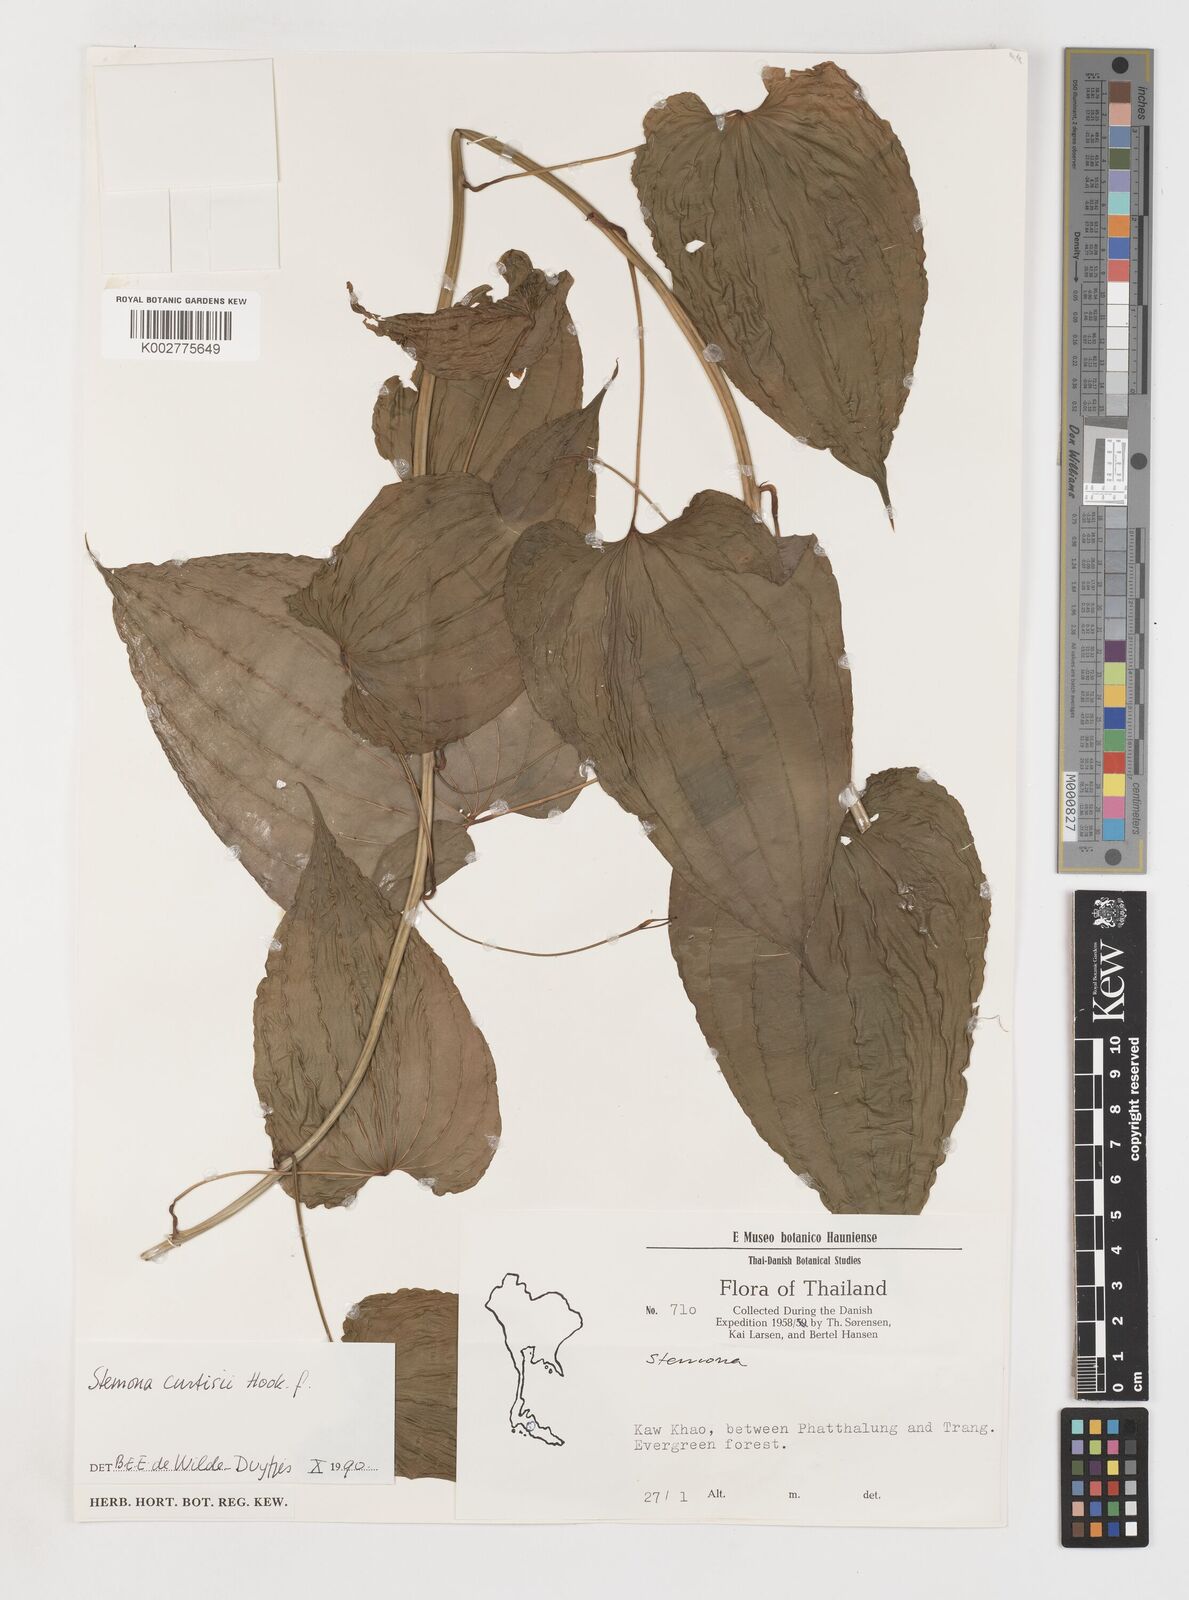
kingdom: Plantae
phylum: Tracheophyta
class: Liliopsida
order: Pandanales
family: Stemonaceae
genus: Stemona
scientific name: Stemona curtisii
